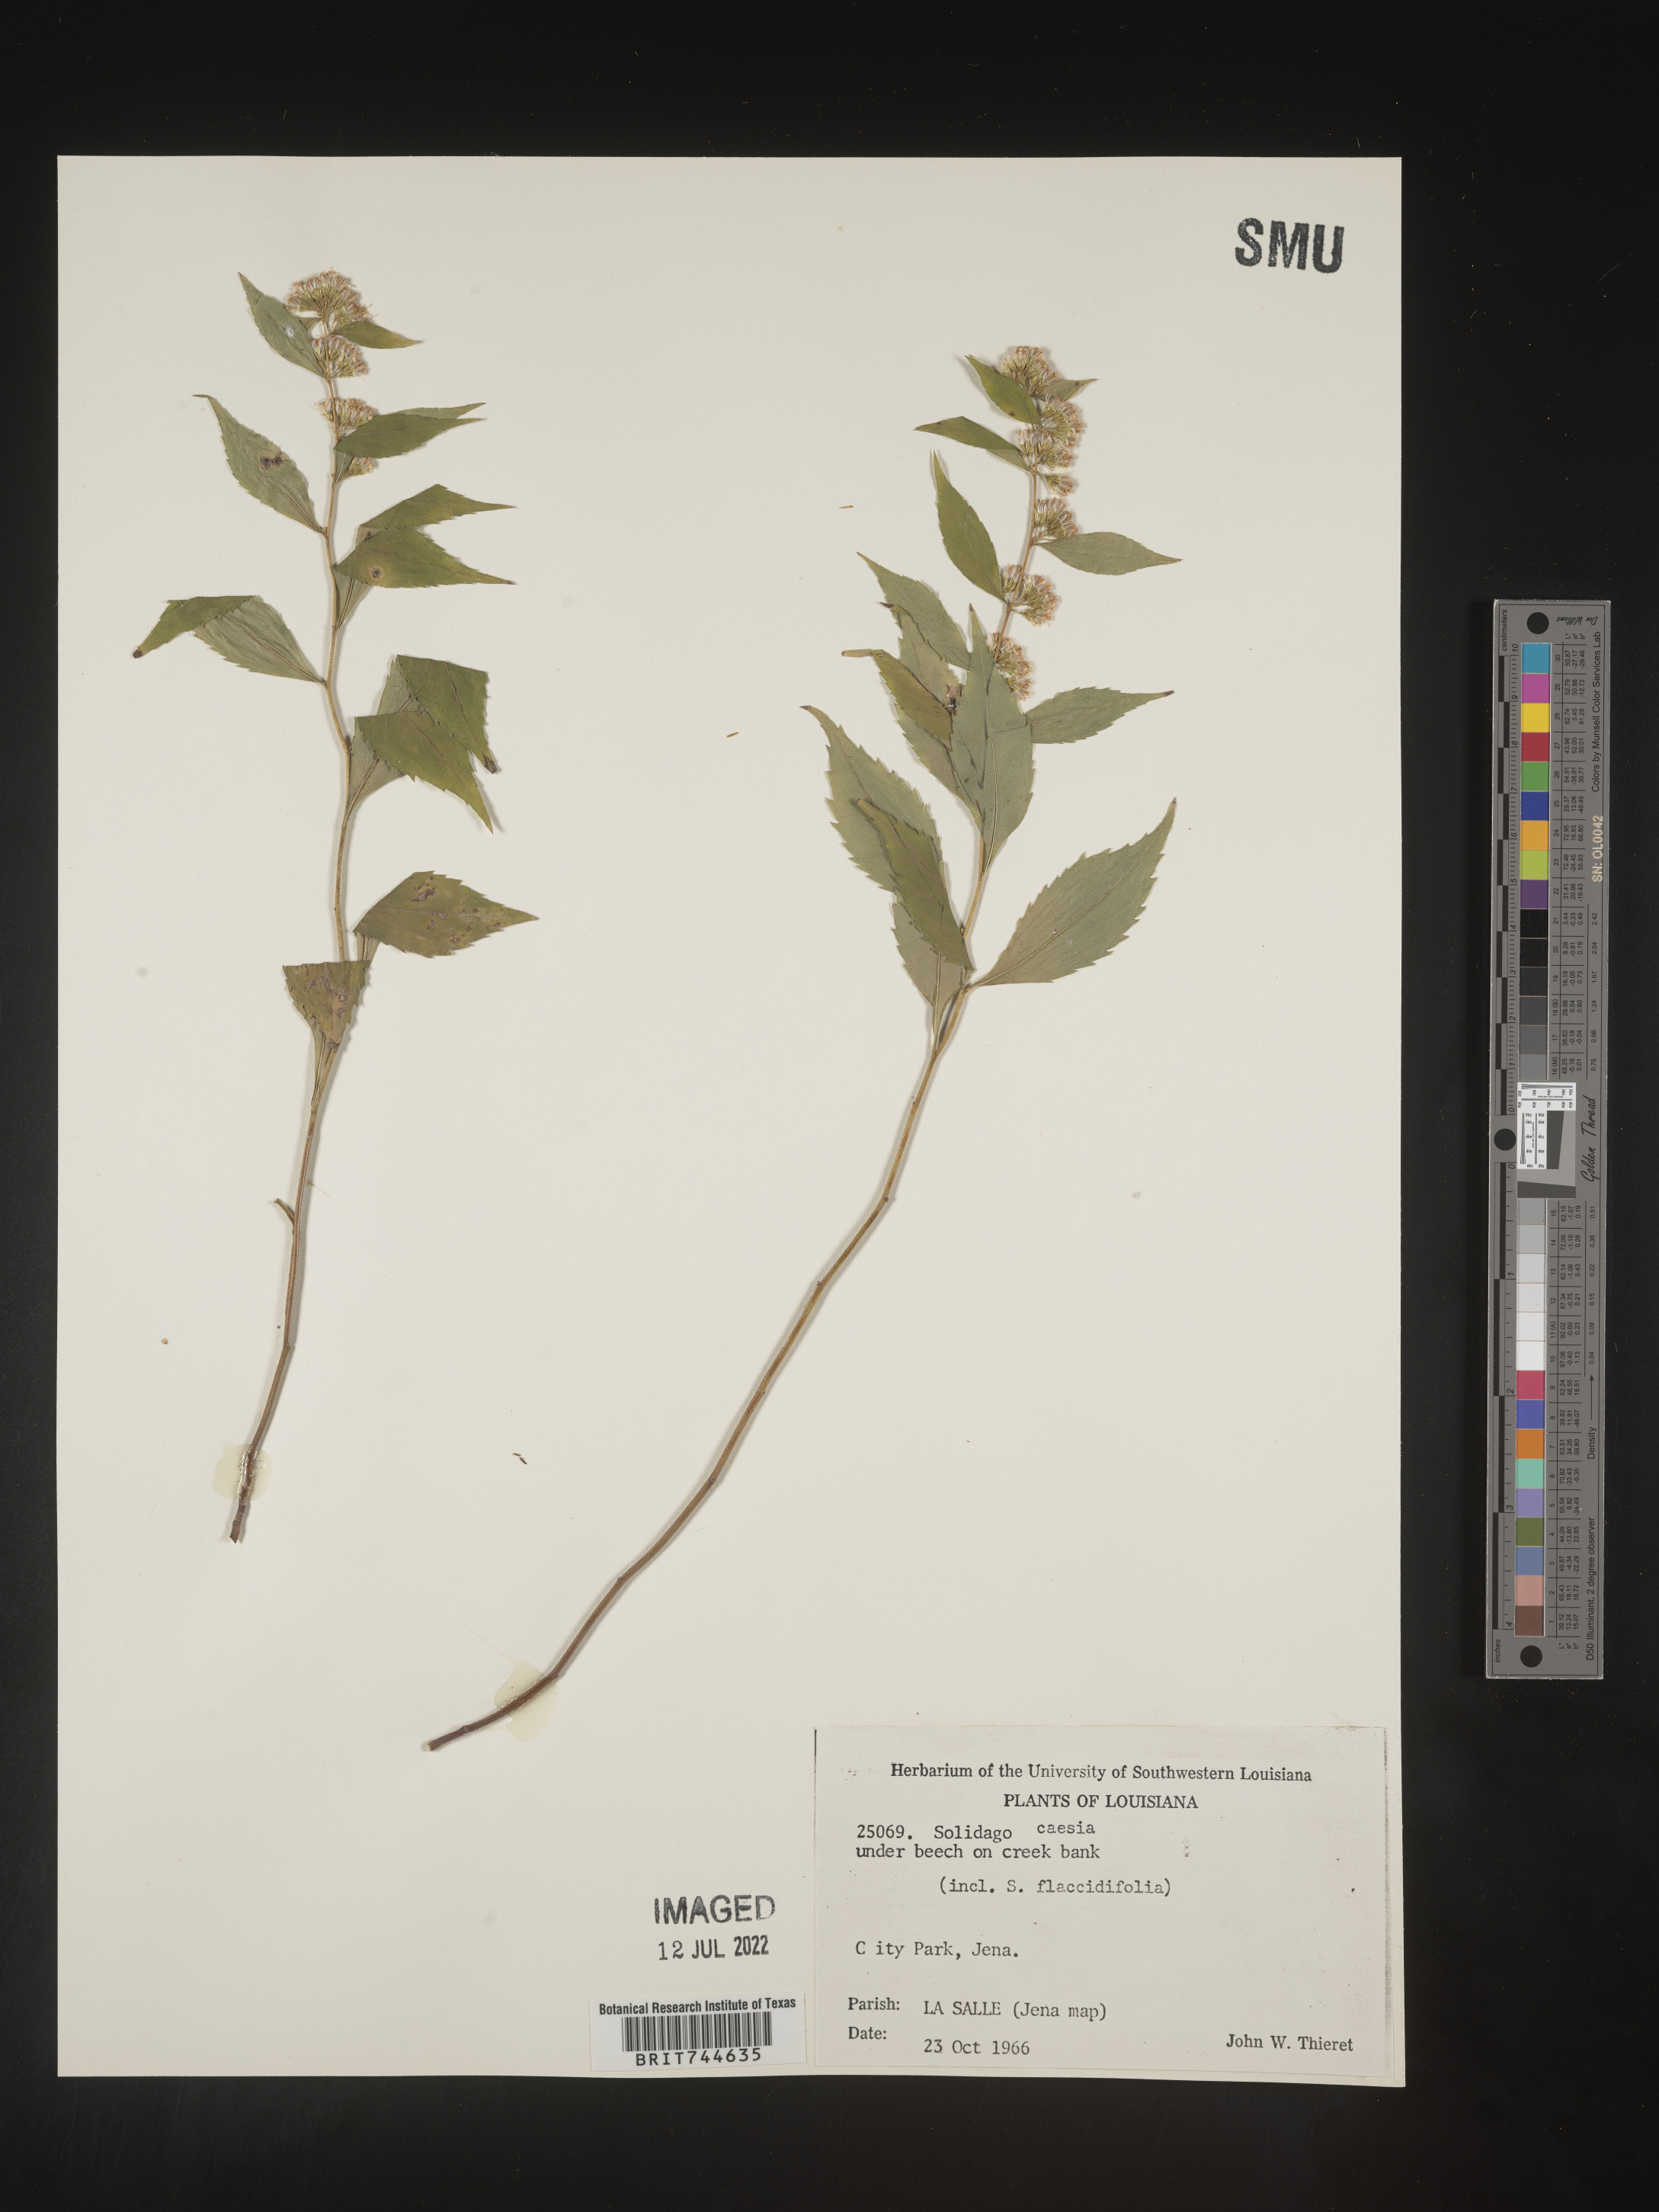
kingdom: Plantae
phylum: Tracheophyta
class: Magnoliopsida
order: Asterales
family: Asteraceae
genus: Solidago
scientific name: Solidago caesia
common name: Woodland goldenrod
